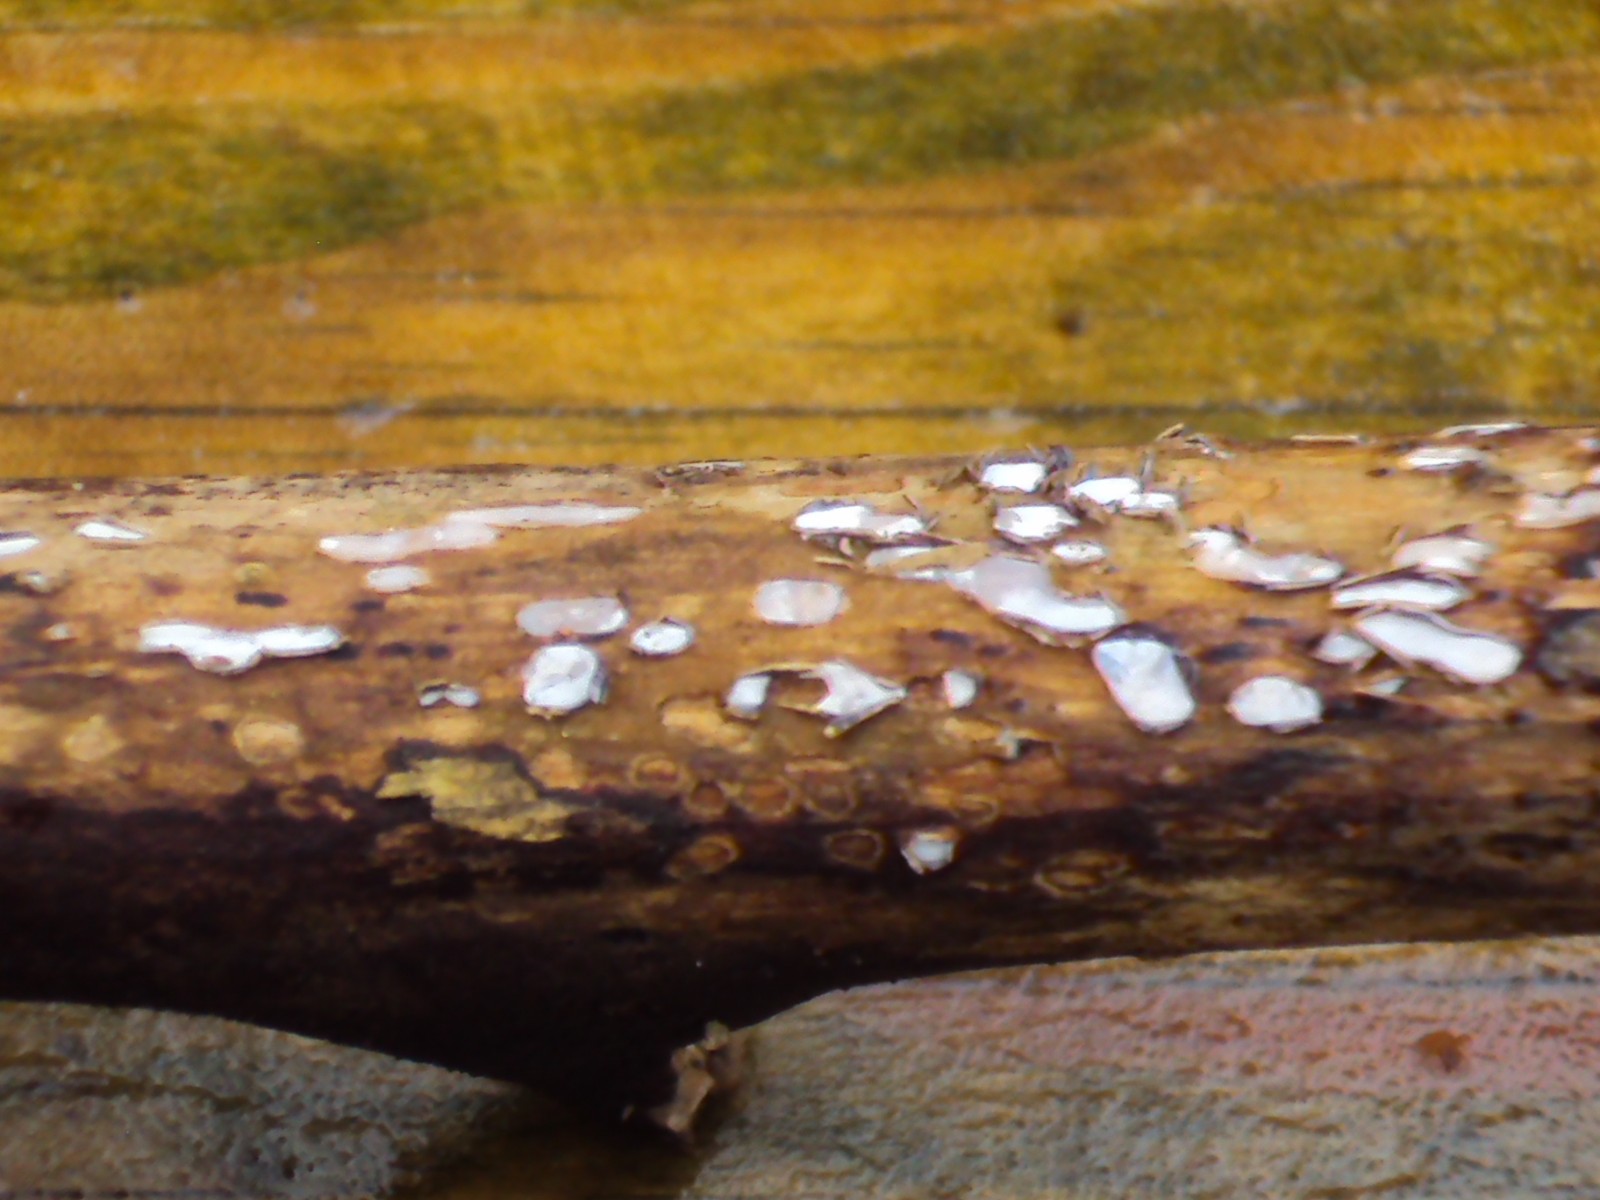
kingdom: Fungi
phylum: Ascomycota
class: Leotiomycetes
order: Chaetomellales
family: Marthamycetaceae
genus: Propolis
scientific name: Propolis farinosa
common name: almindelig vedsprængerskive
